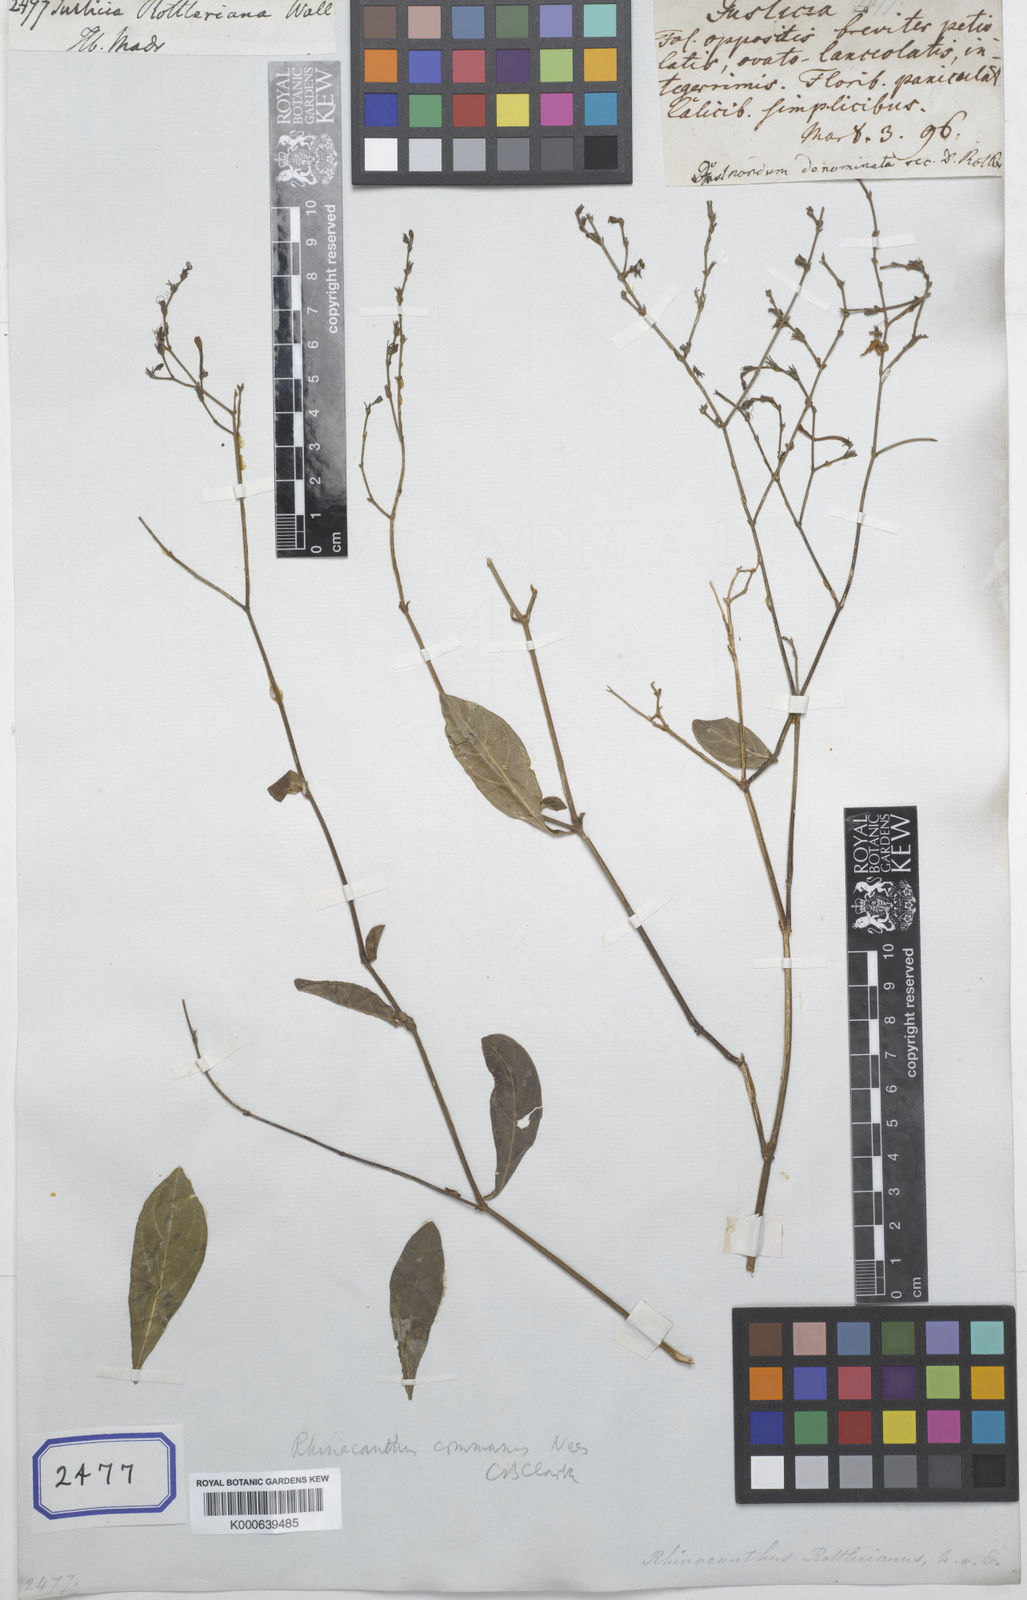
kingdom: Plantae
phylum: Tracheophyta
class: Magnoliopsida
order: Lamiales
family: Acanthaceae
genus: Rhinacanthus
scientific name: Rhinacanthus nasutus
